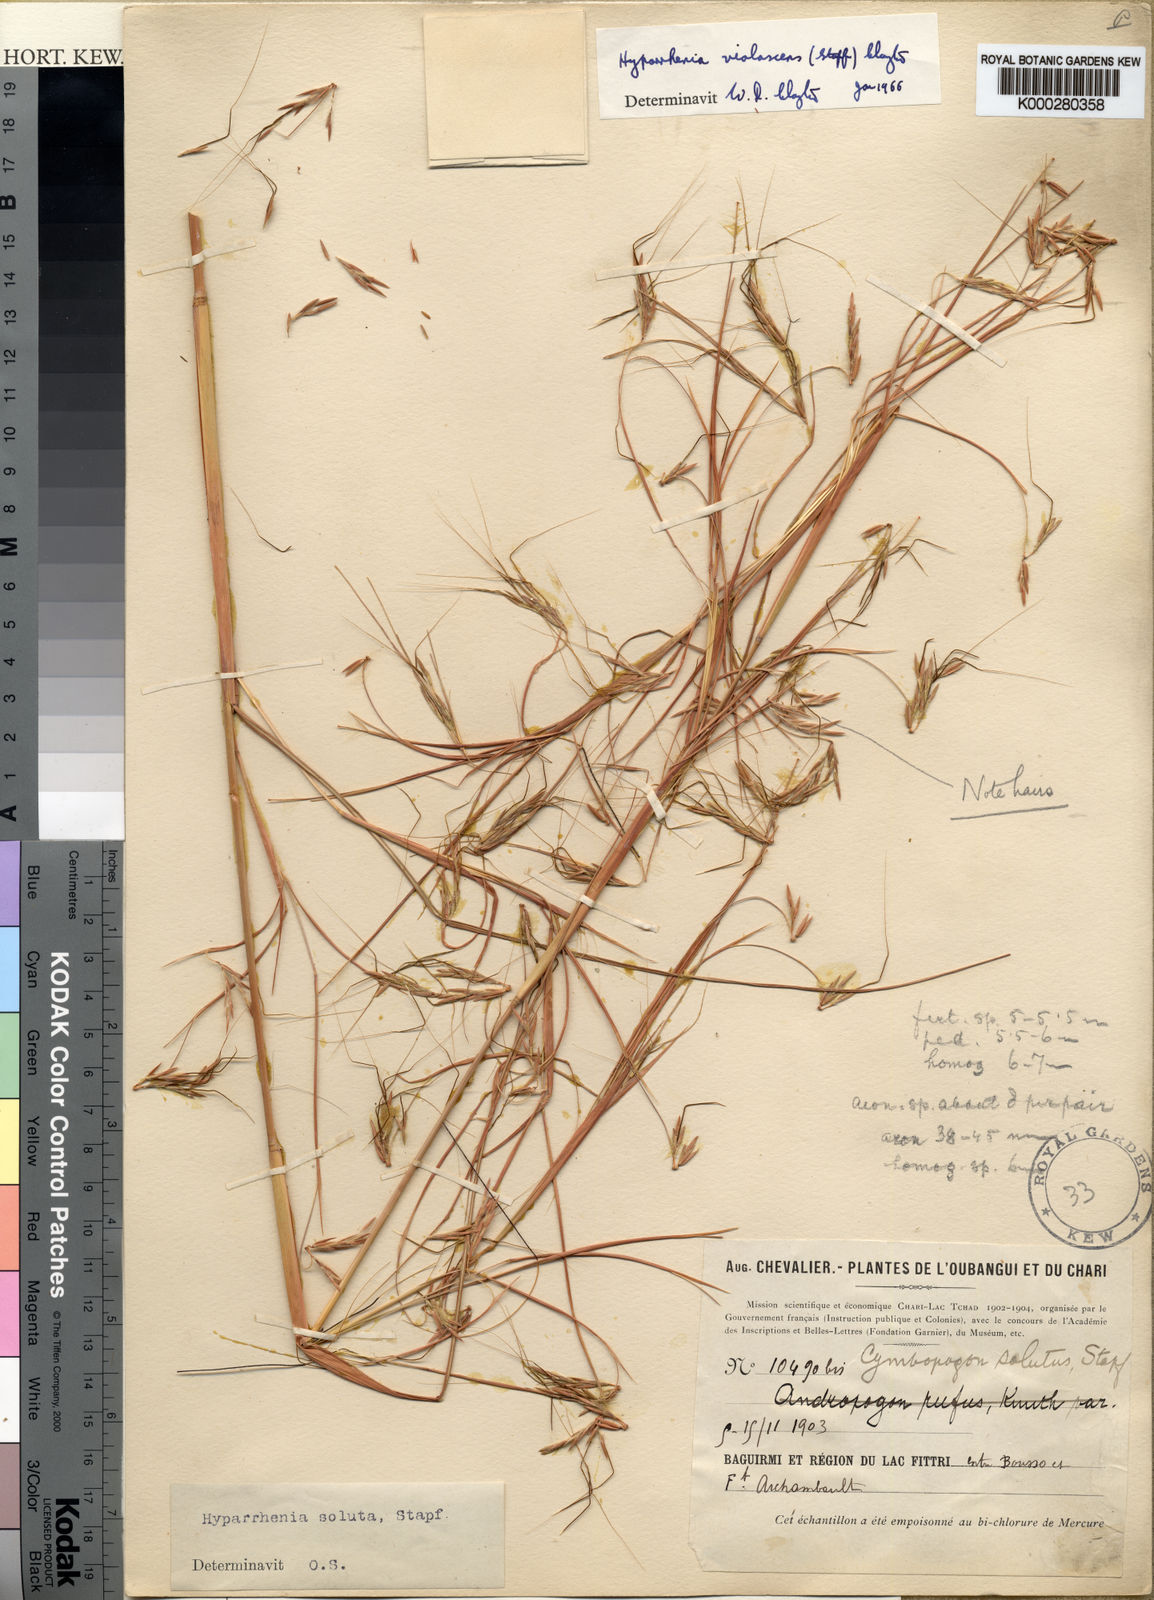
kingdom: Plantae
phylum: Tracheophyta
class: Liliopsida
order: Poales
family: Poaceae
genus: Hyparrhenia
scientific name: Hyparrhenia bagirmica
